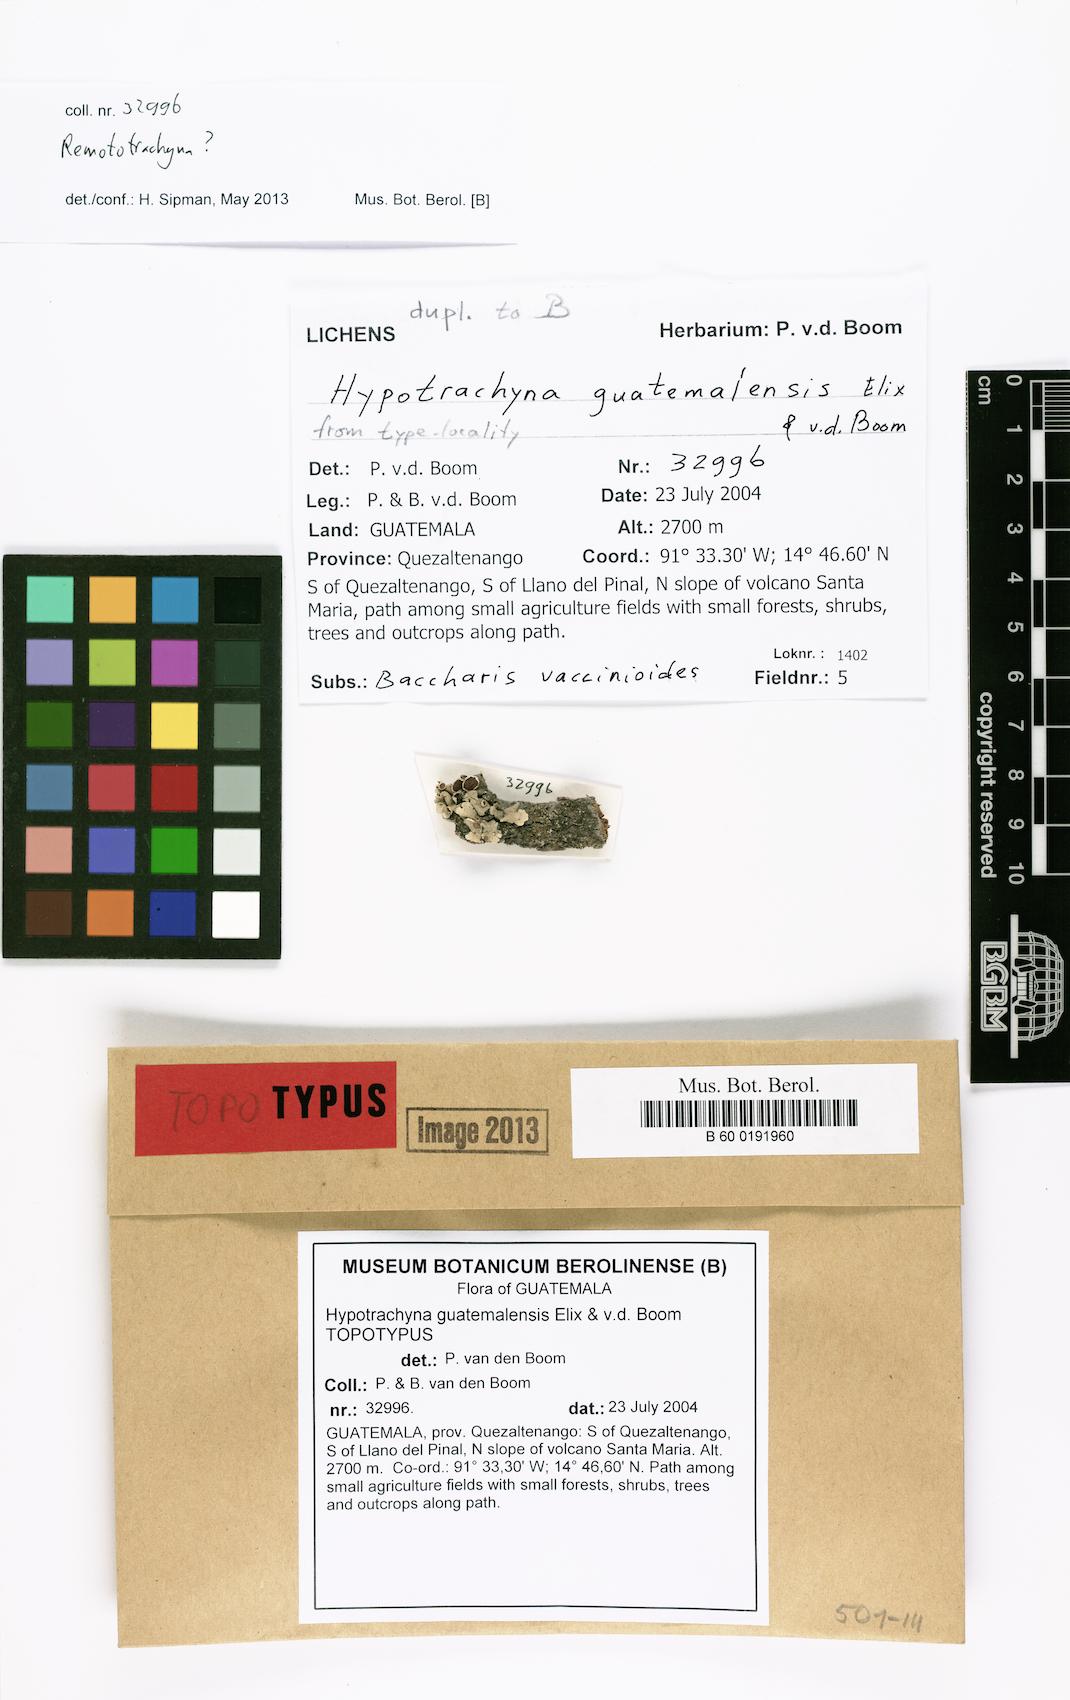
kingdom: Fungi
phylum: Ascomycota
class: Lecanoromycetes
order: Lecanorales
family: Parmeliaceae
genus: Hypotrachyna
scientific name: Hypotrachyna guatemalensis
